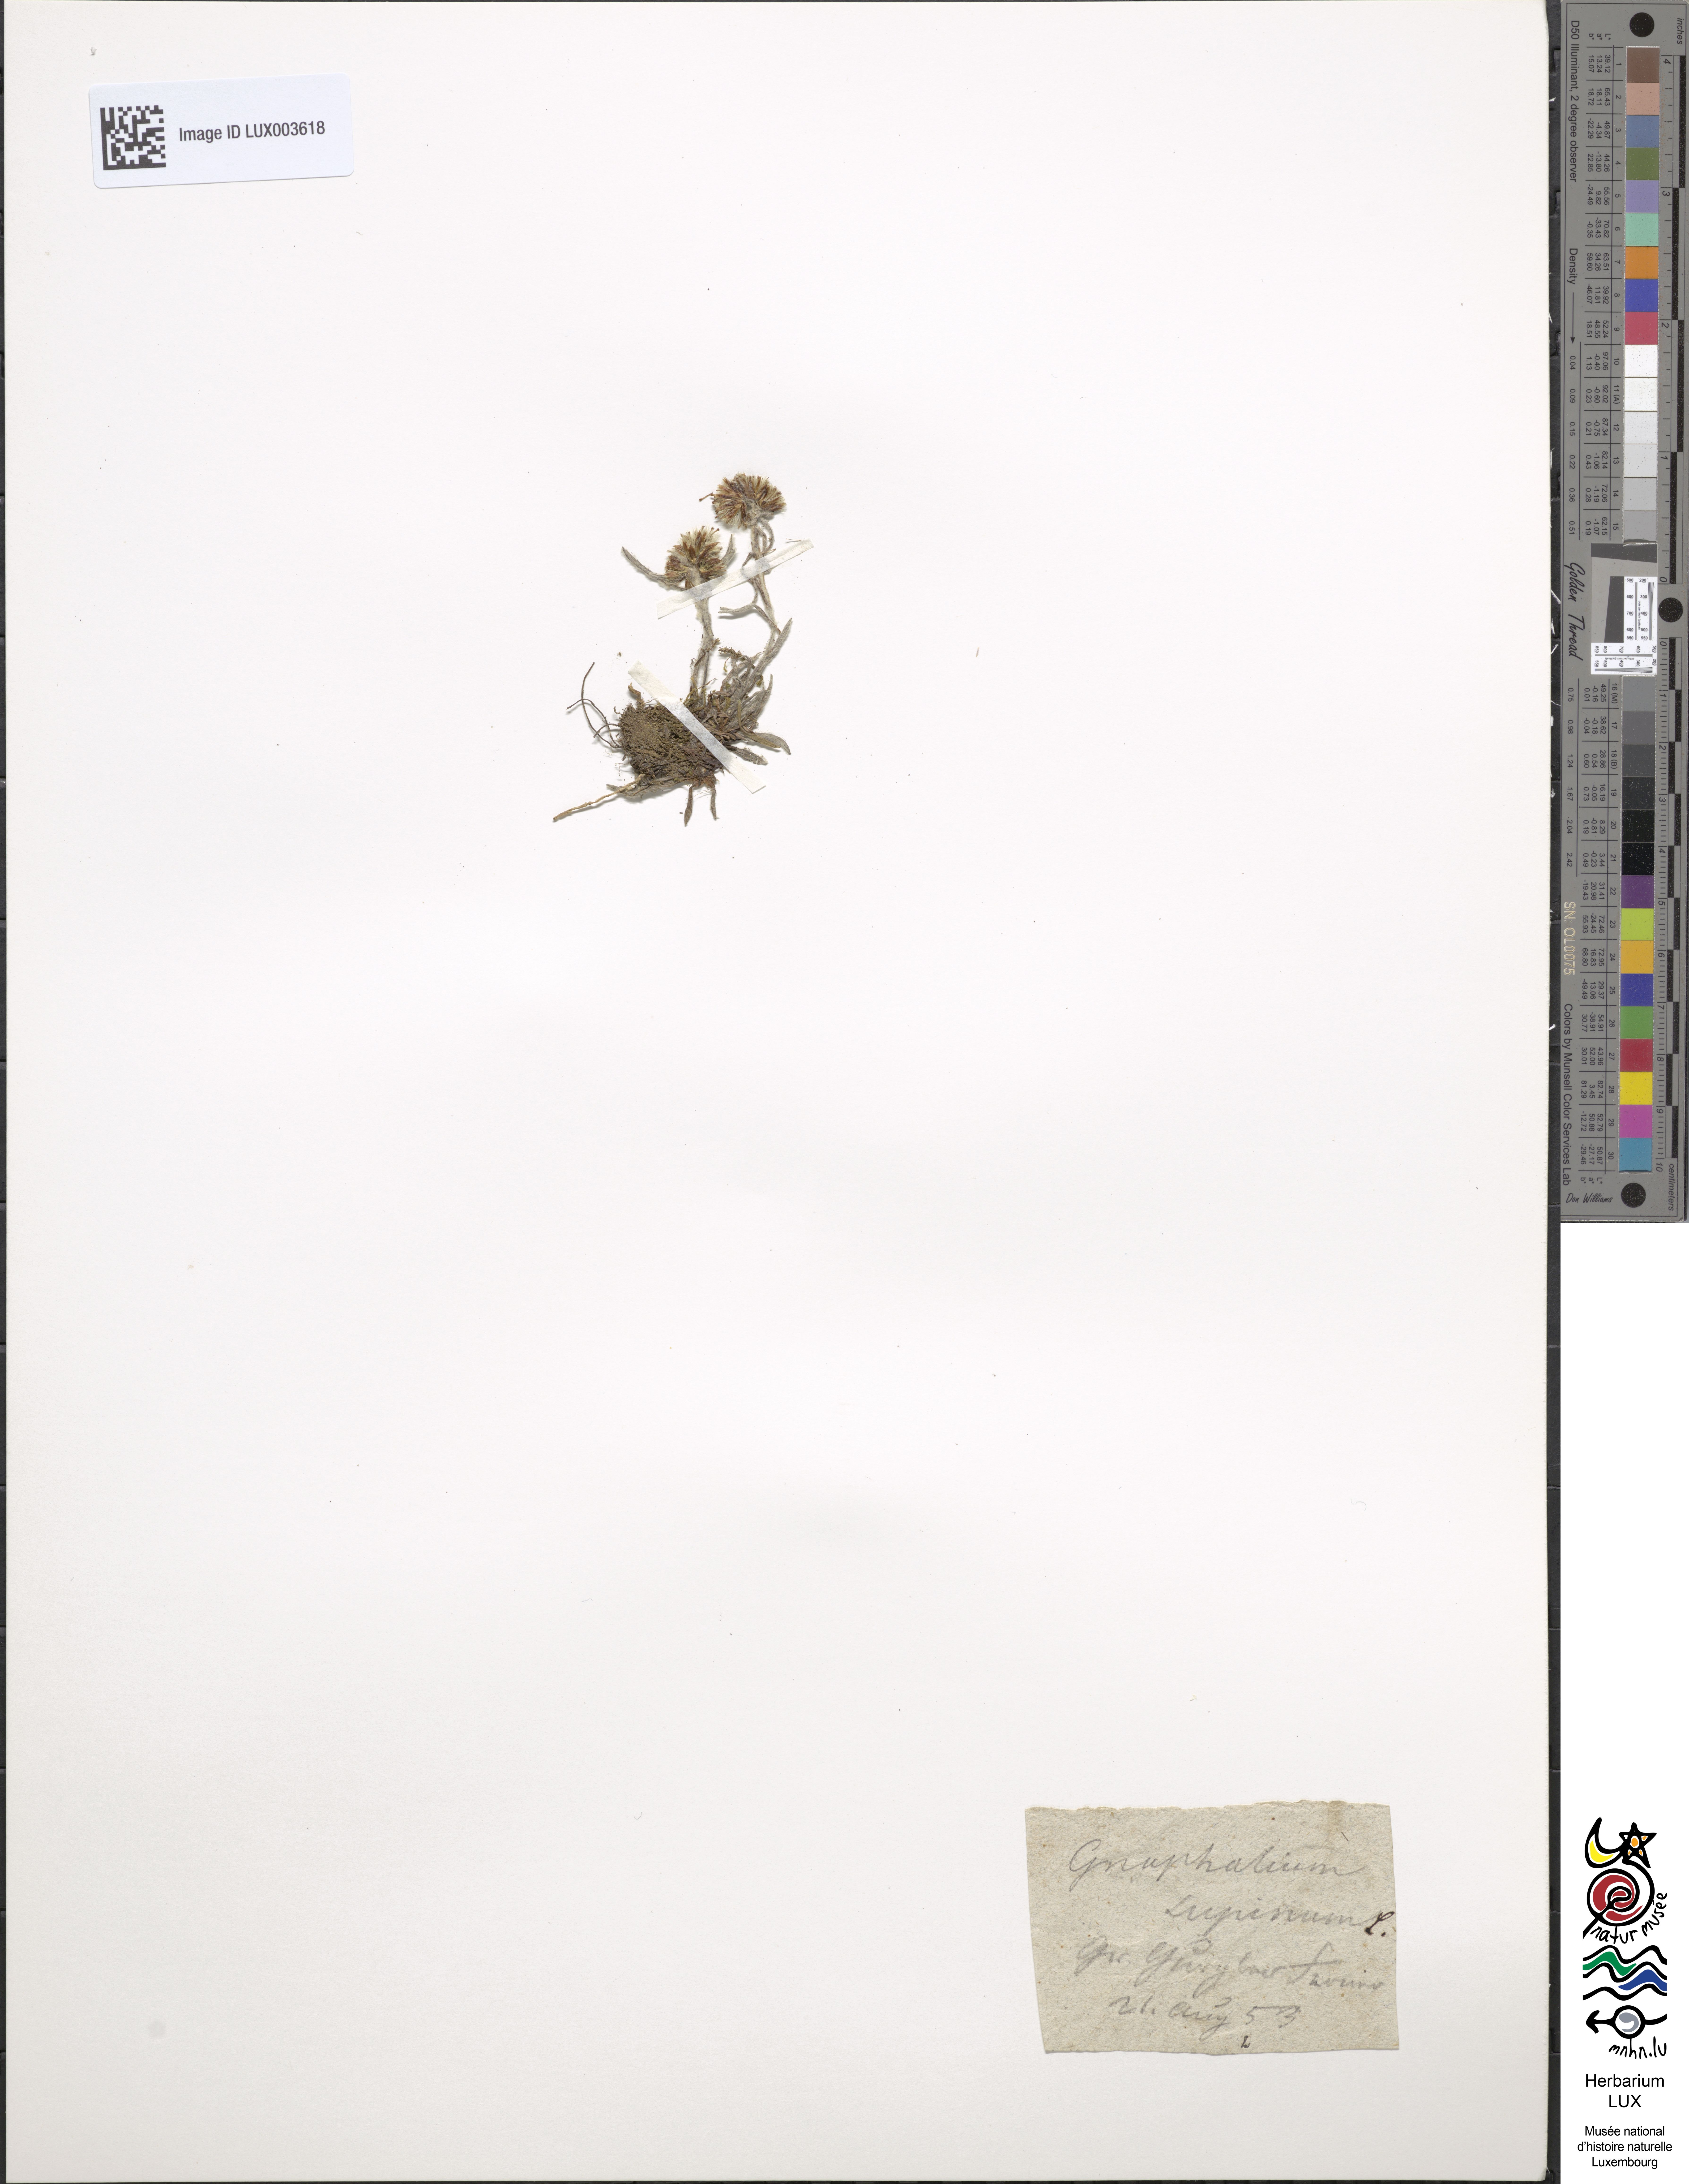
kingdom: Plantae
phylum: Tracheophyta
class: Magnoliopsida
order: Asterales
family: Asteraceae
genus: Omalotheca
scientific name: Omalotheca supina
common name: Alpine arctic-cudweed
